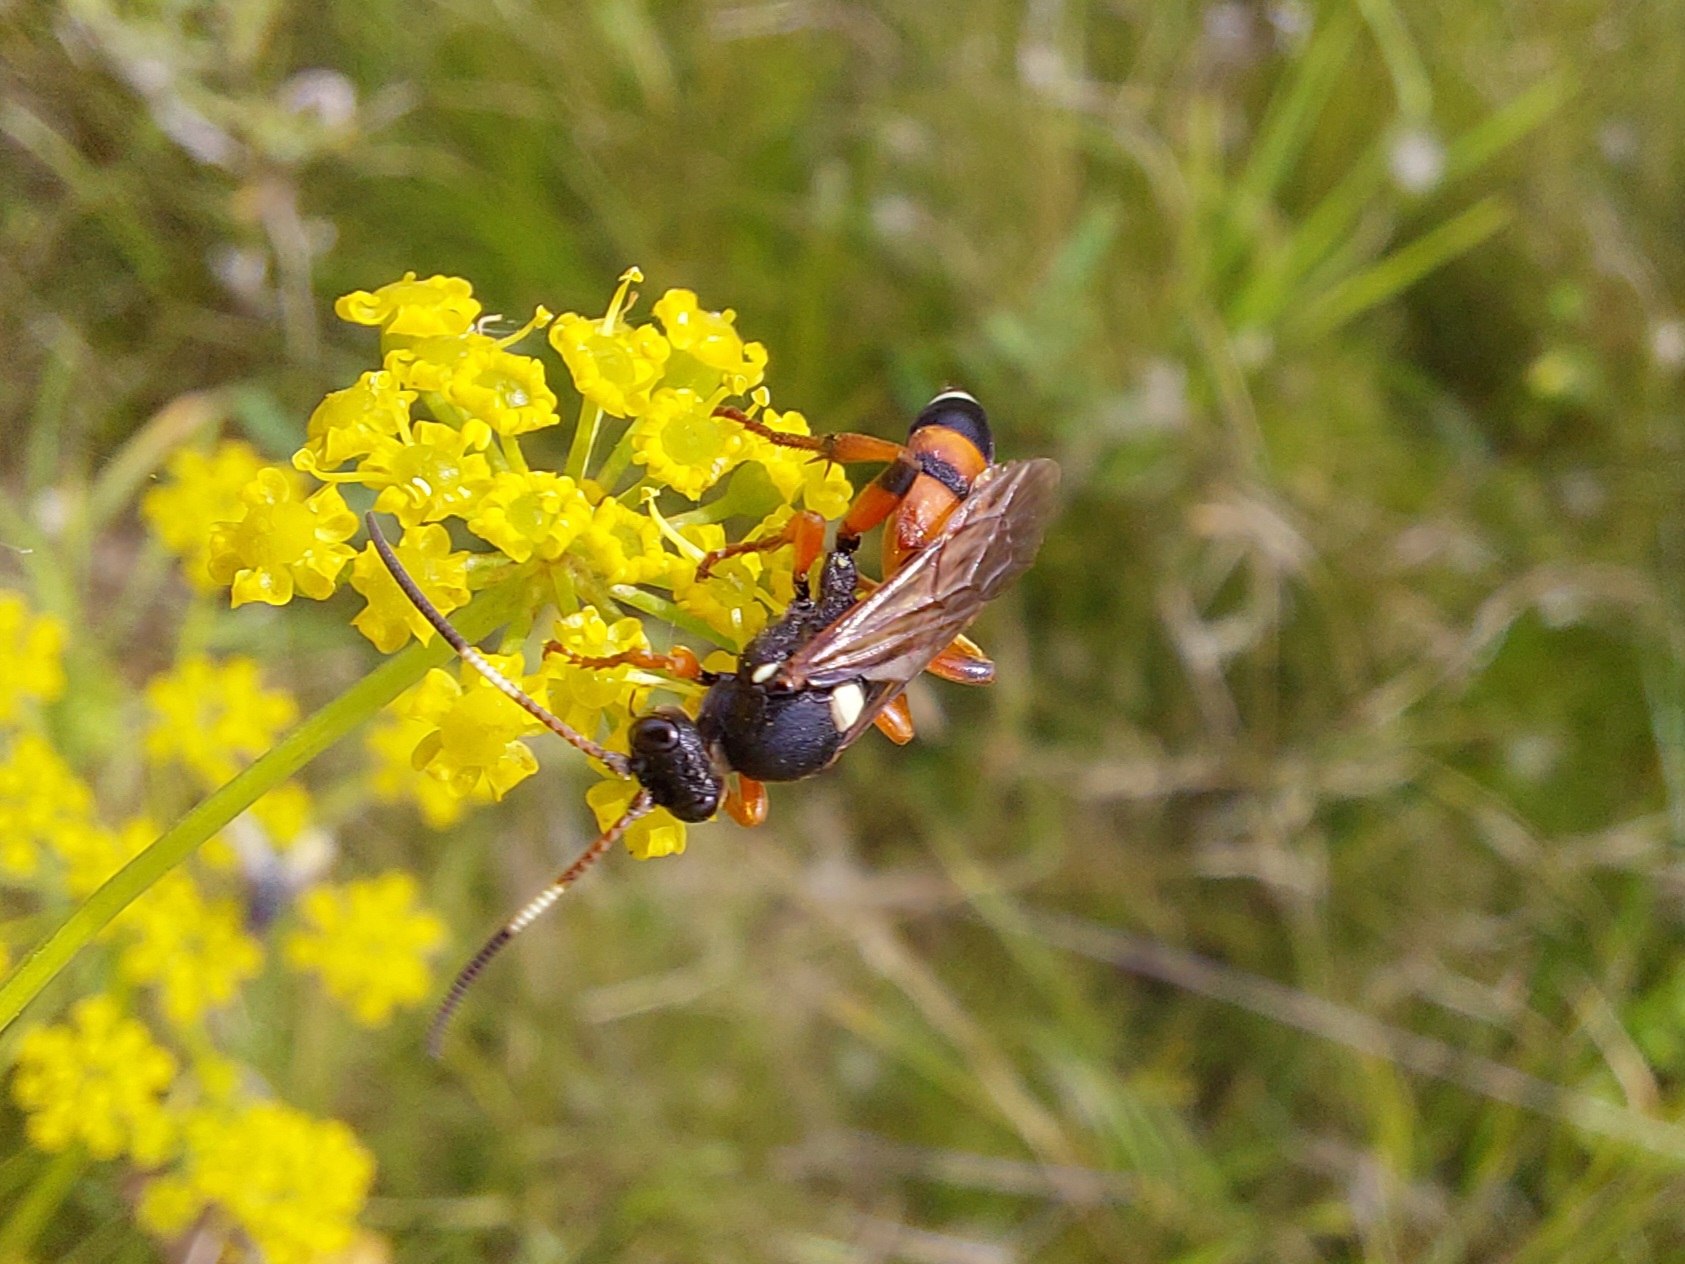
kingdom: Animalia
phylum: Arthropoda
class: Insecta
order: Hymenoptera
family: Ichneumonidae
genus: Ichneumon
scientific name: Ichneumon sarcitorius
